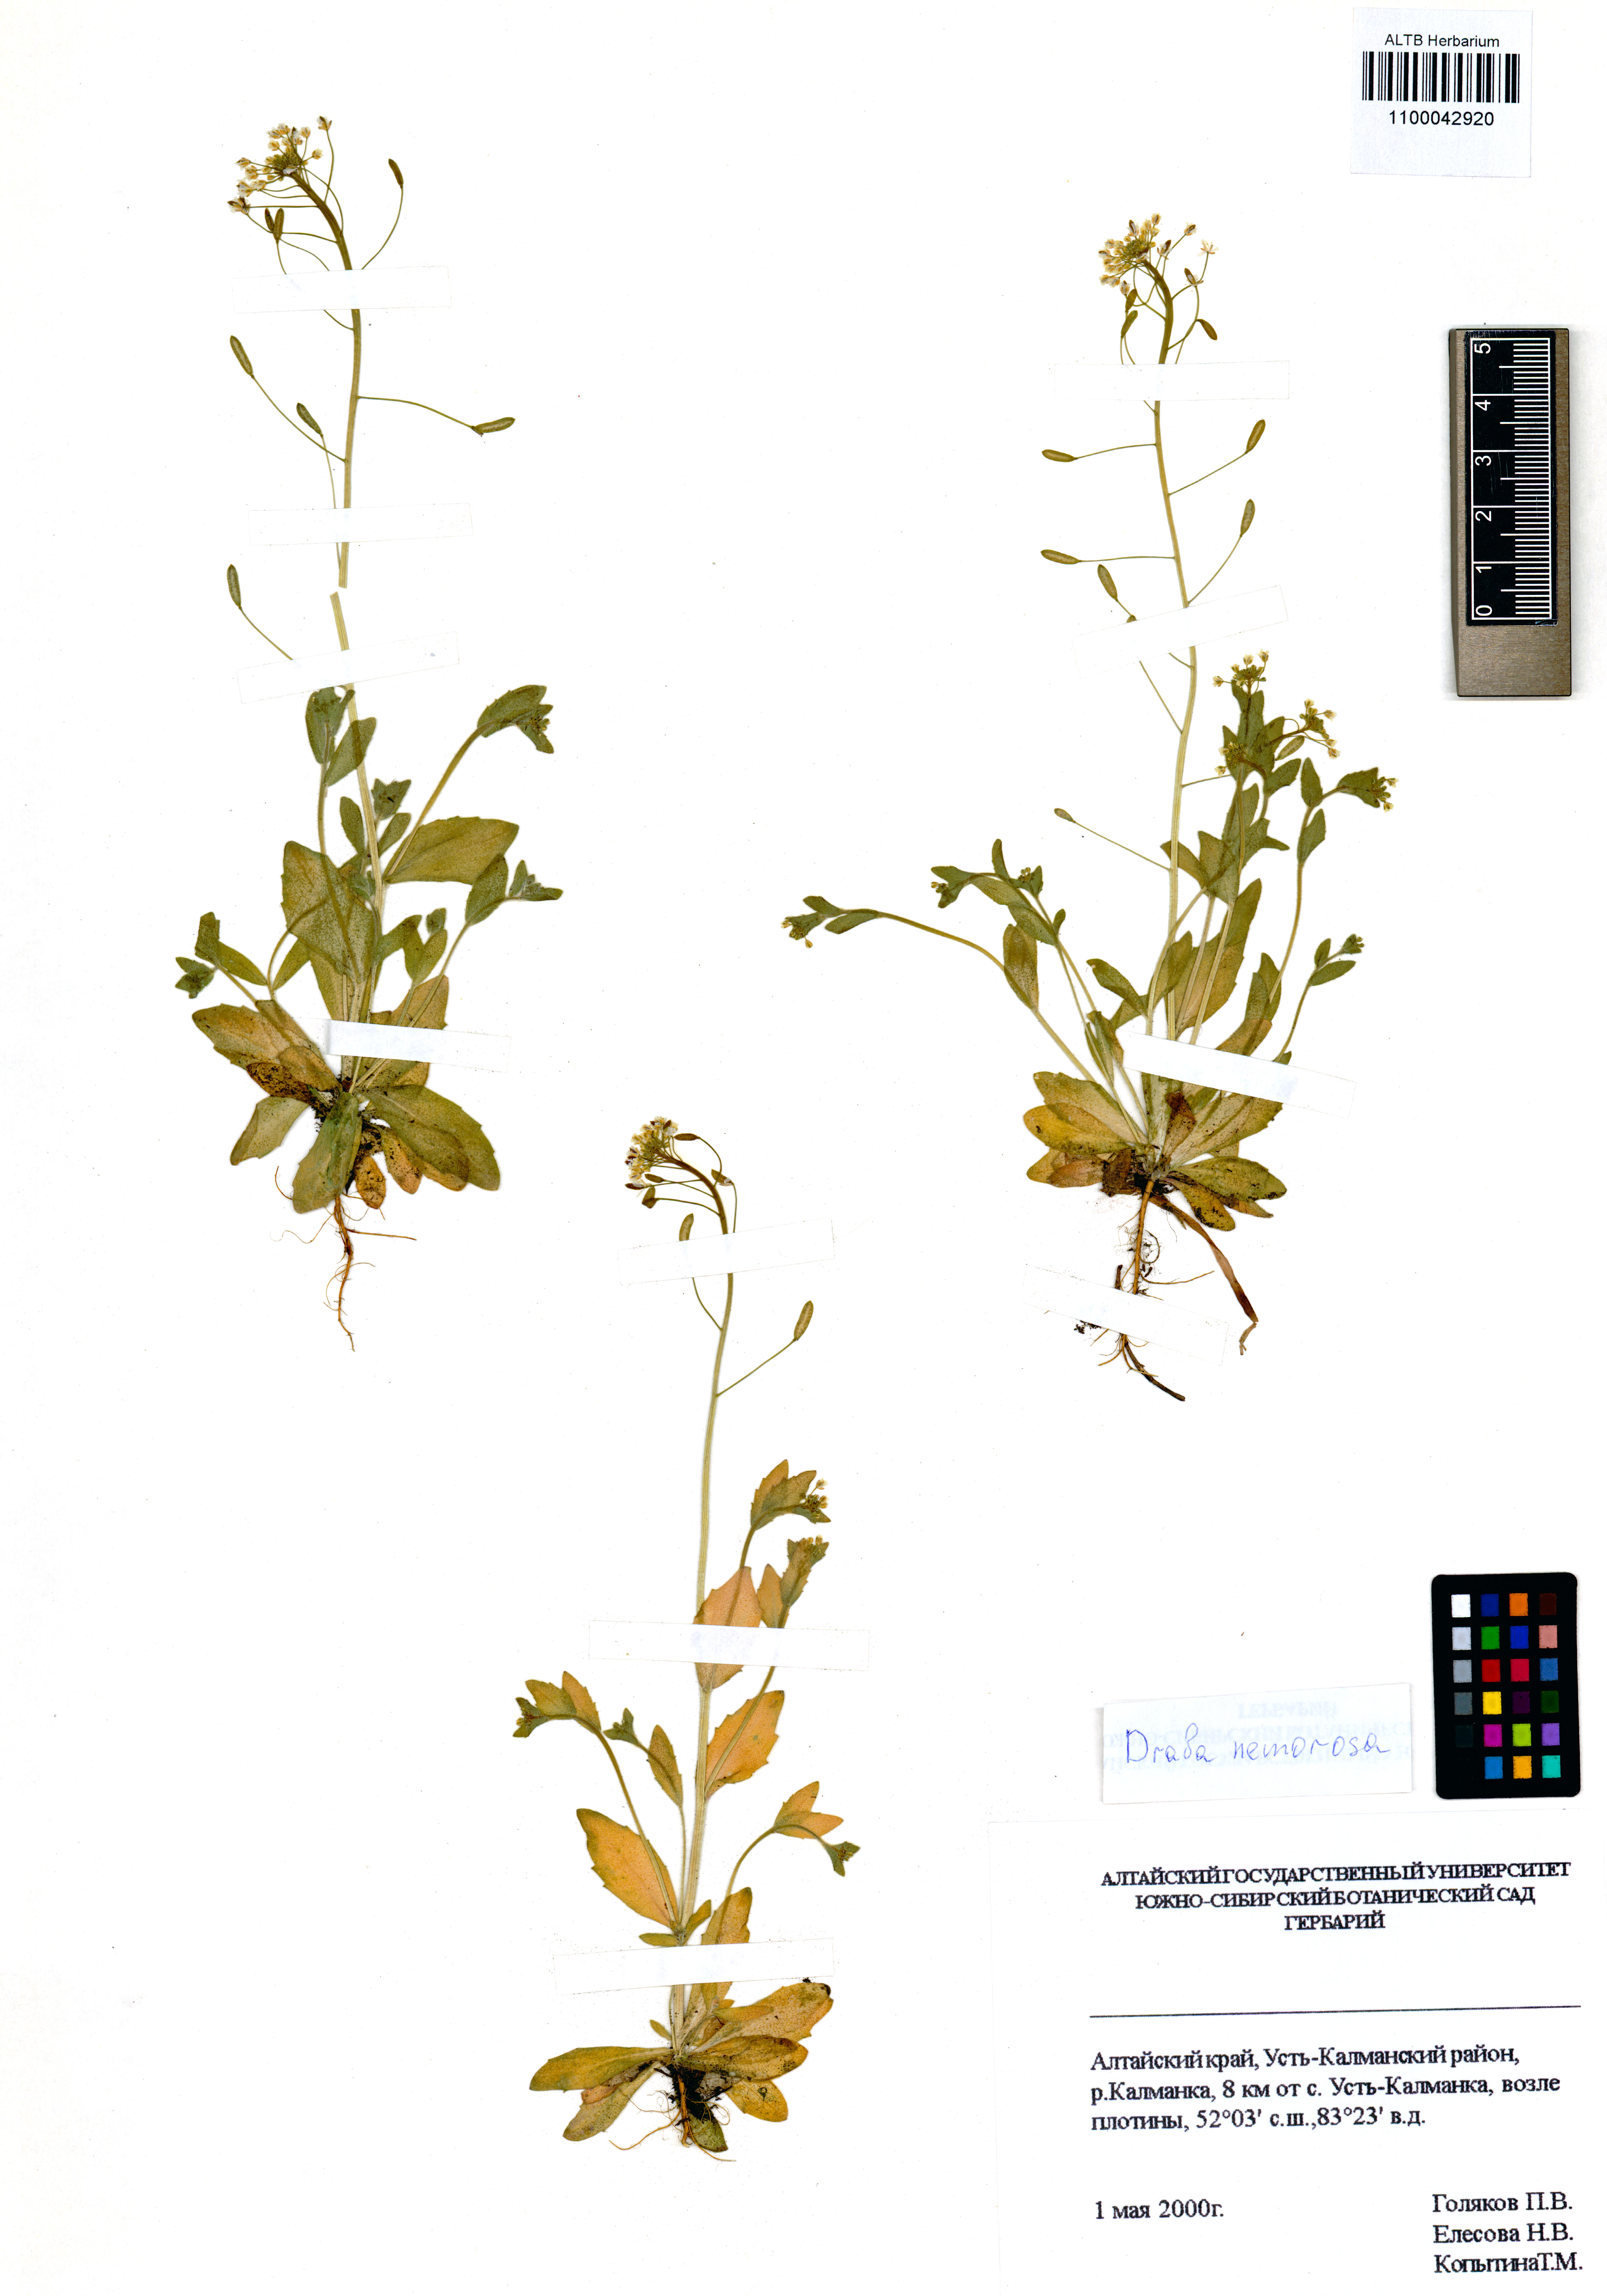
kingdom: Plantae
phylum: Tracheophyta
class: Magnoliopsida
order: Brassicales
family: Brassicaceae
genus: Draba
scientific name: Draba nemorosa
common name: Wood whitlow-grass
